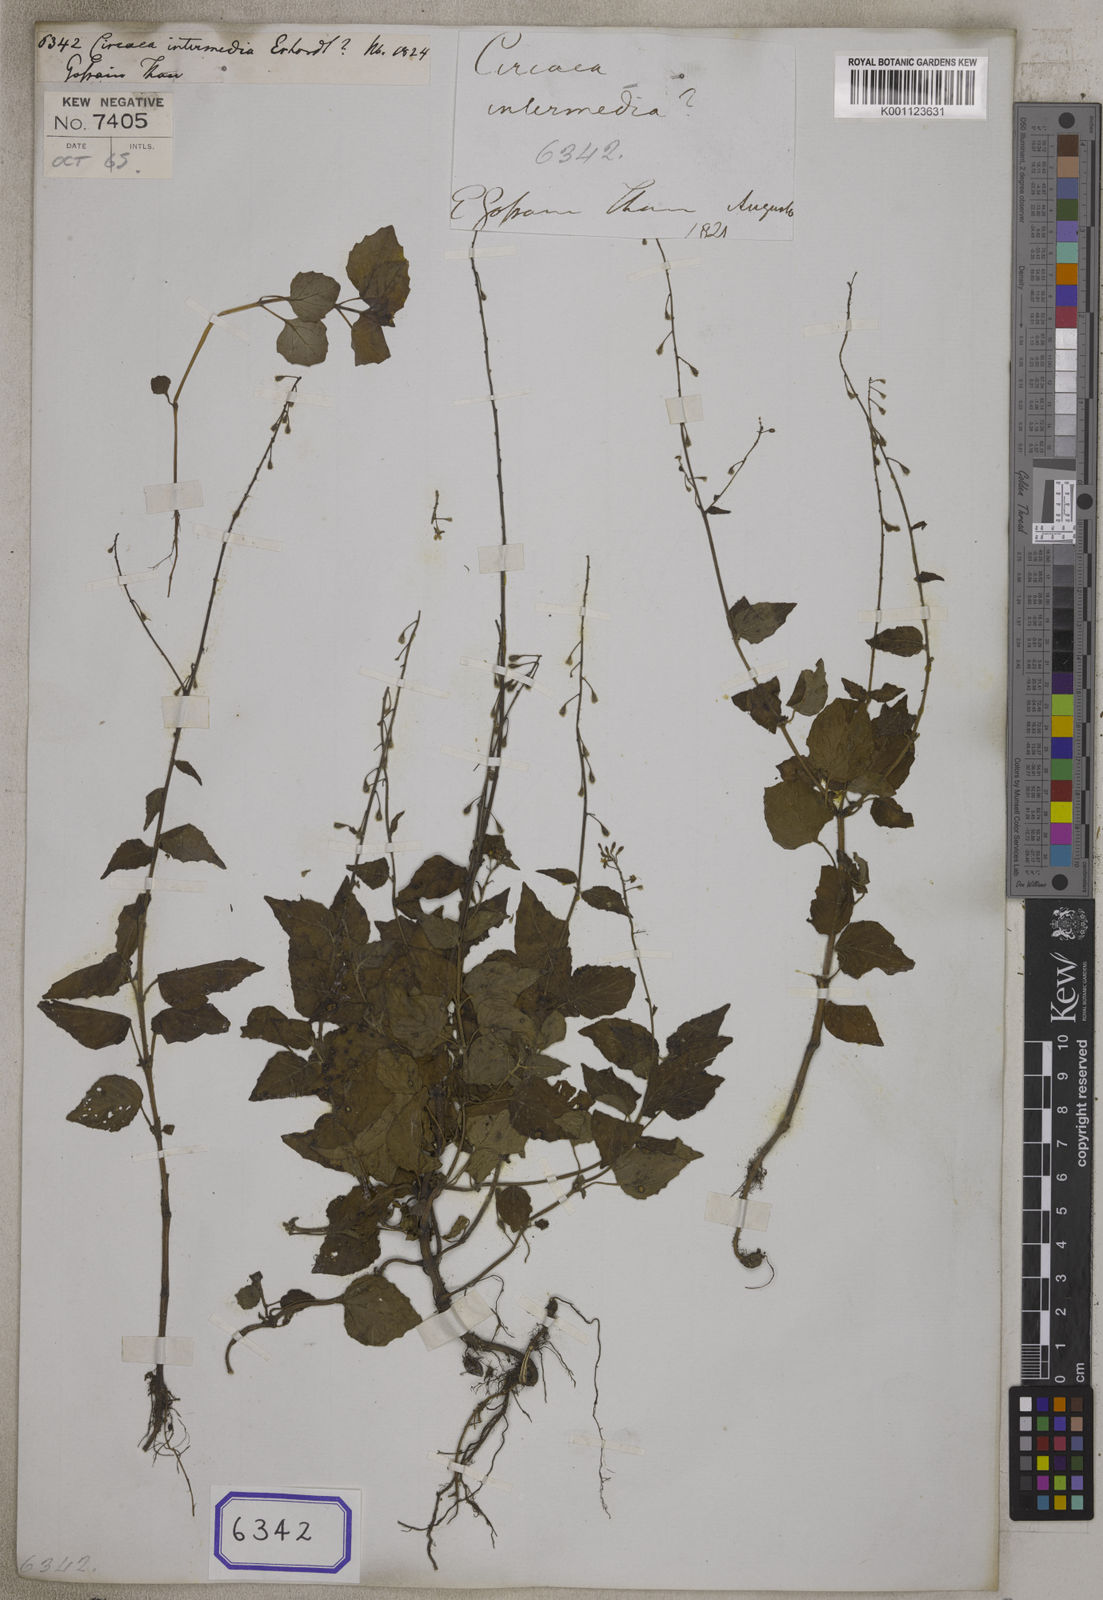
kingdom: Plantae
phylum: Tracheophyta
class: Magnoliopsida
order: Myrtales
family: Onagraceae
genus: Circaea
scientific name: Circaea
